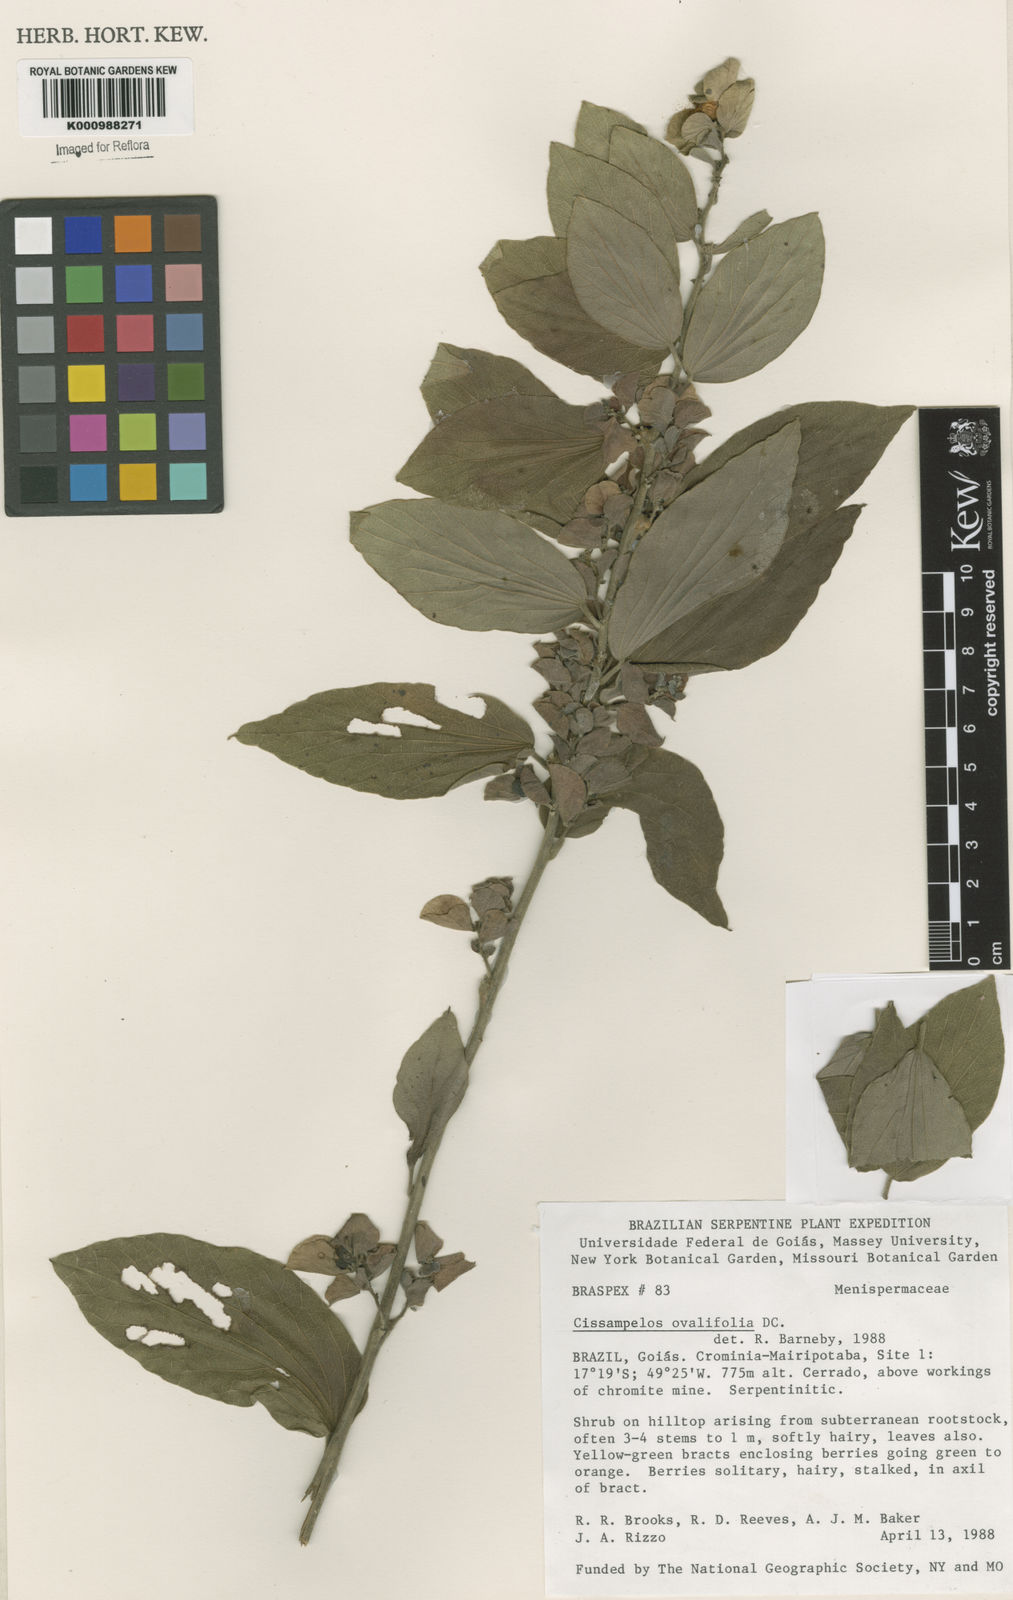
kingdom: Plantae
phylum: Tracheophyta
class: Magnoliopsida
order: Ranunculales
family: Menispermaceae
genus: Cissampelos
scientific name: Cissampelos ovalifolia
